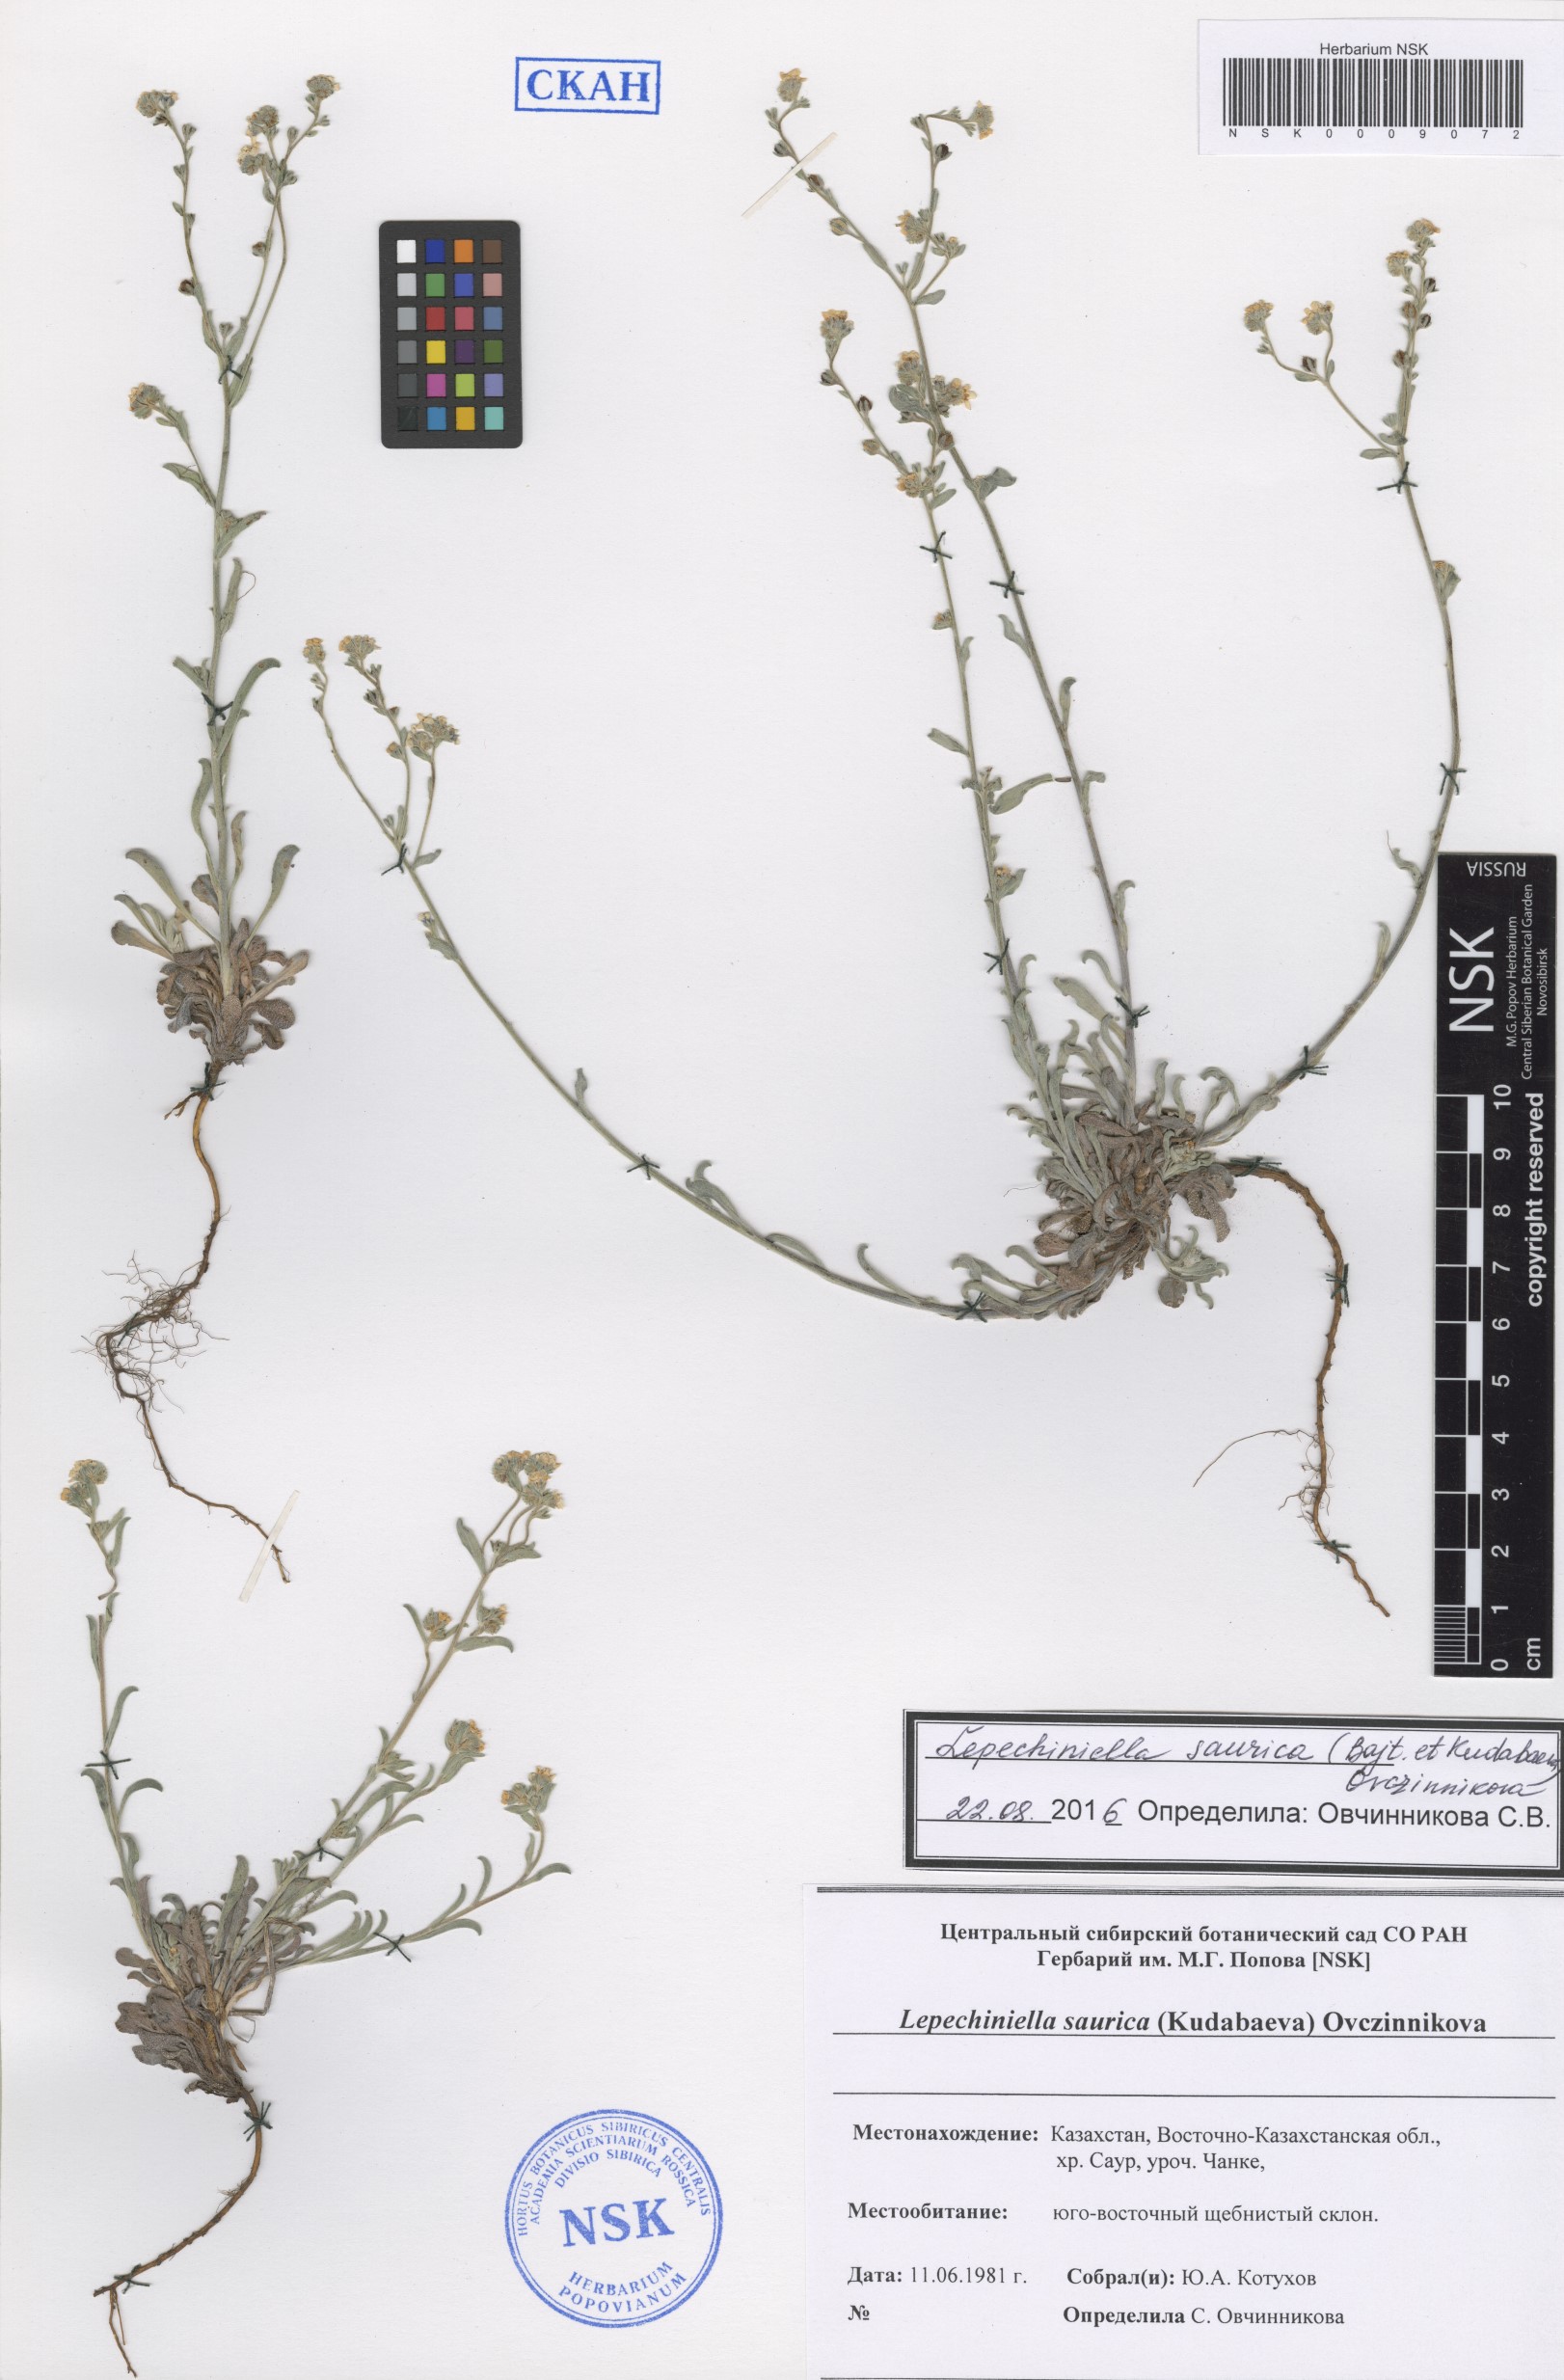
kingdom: Plantae
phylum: Tracheophyta
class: Magnoliopsida
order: Boraginales
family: Boraginaceae
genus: Lepechiniella
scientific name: Lepechiniella saurica
